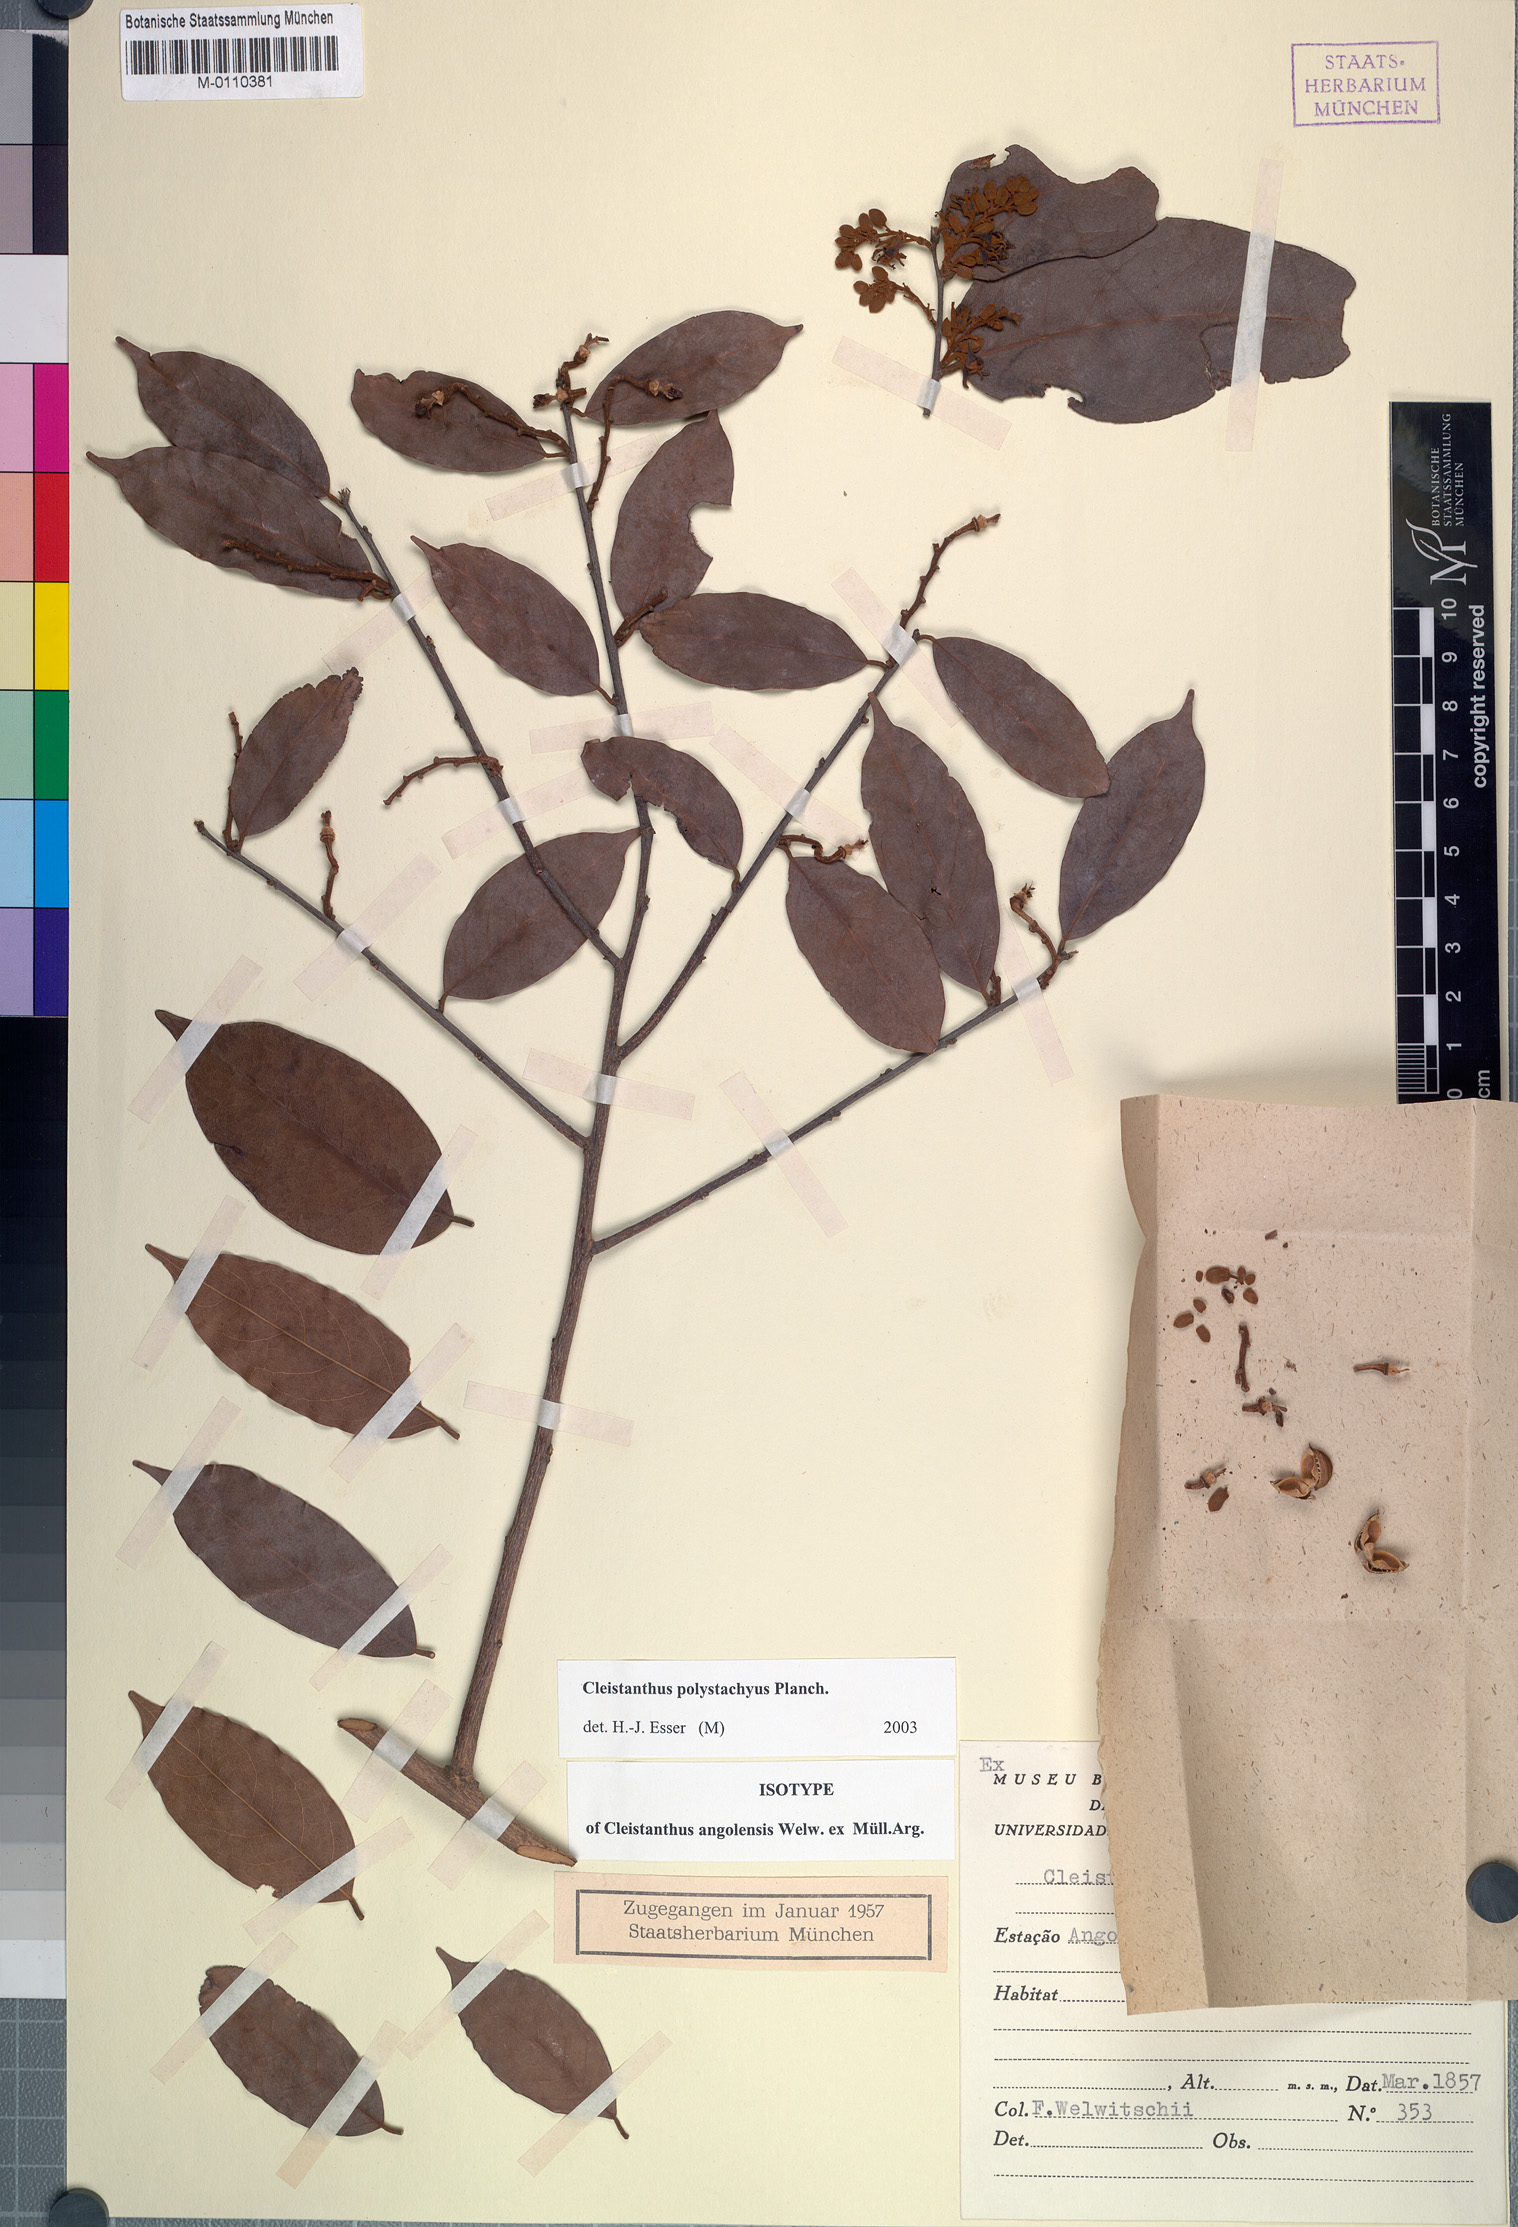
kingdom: Plantae
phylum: Tracheophyta
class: Magnoliopsida
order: Malpighiales
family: Phyllanthaceae
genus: Cleistanthus
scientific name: Cleistanthus polystachyus
